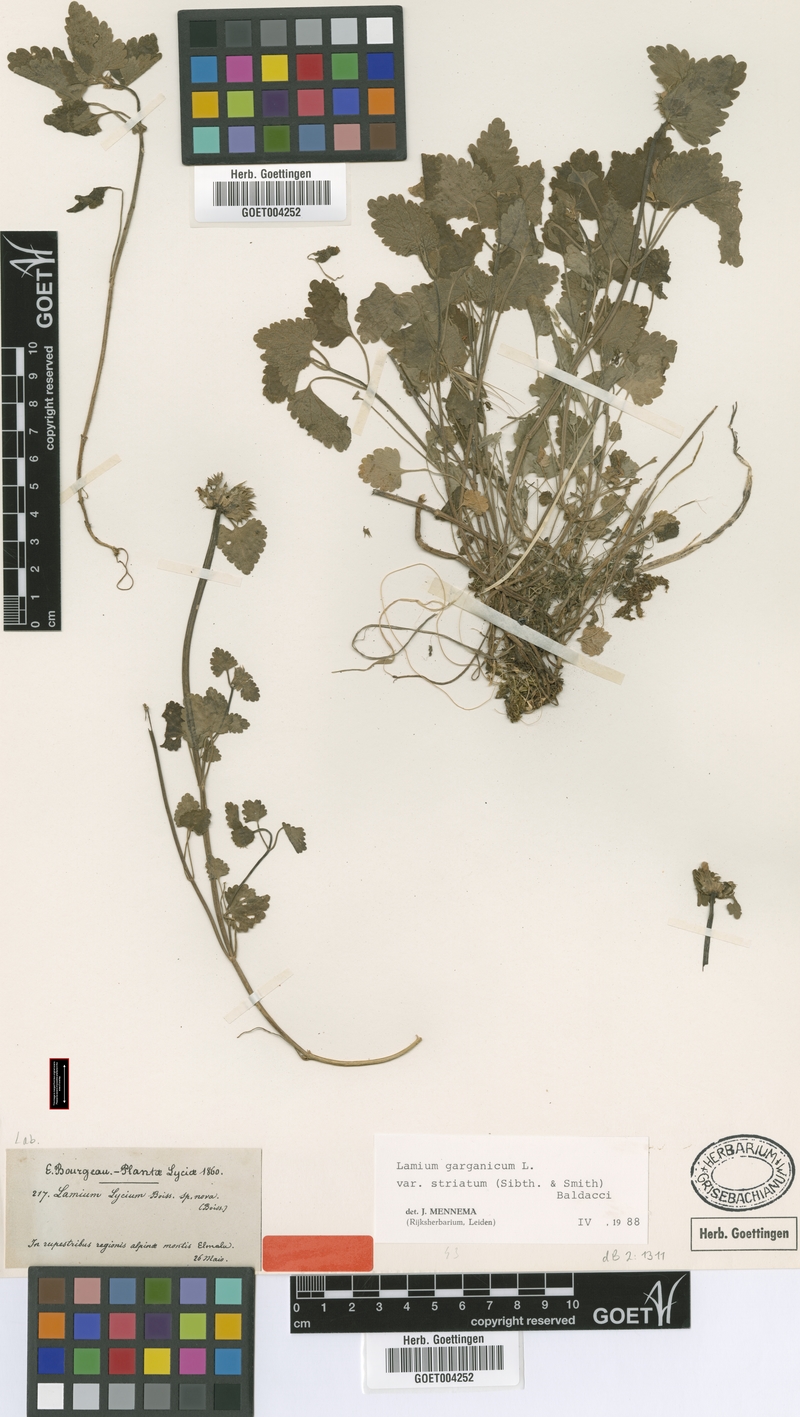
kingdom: Plantae
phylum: Tracheophyta
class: Magnoliopsida
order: Lamiales
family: Lamiaceae
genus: Lamium
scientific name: Lamium garganicum
